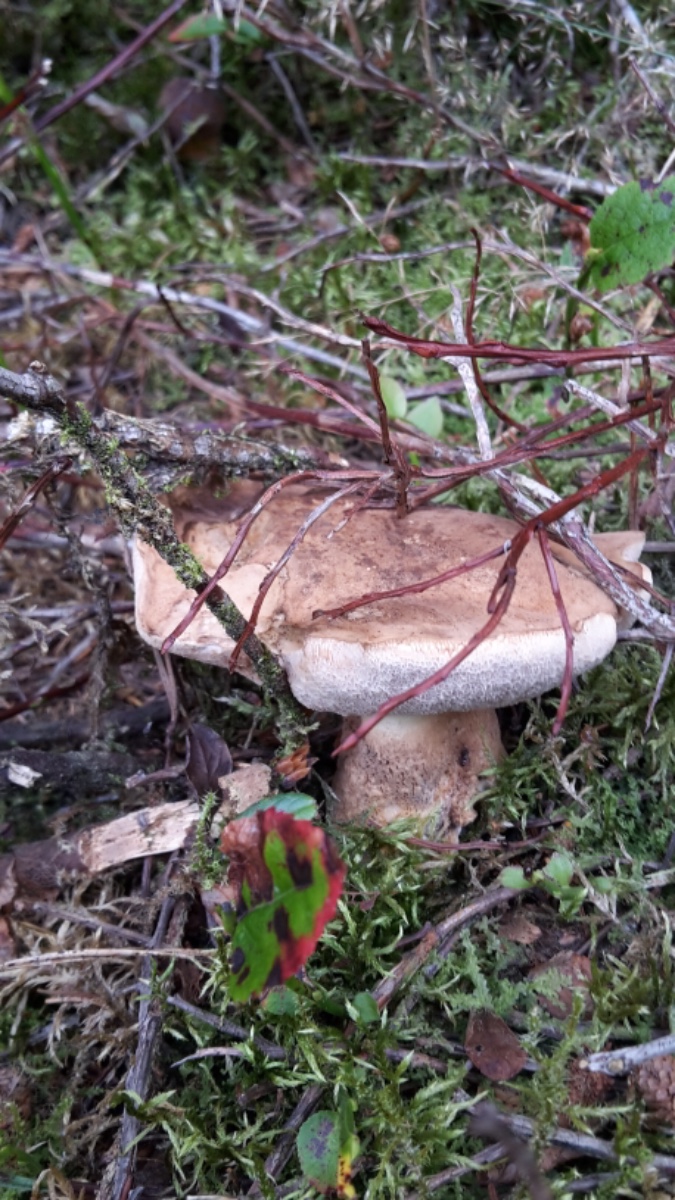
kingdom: Fungi
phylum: Basidiomycota
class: Agaricomycetes
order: Boletales
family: Boletaceae
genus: Tylopilus
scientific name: Tylopilus felleus
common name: galderørhat
